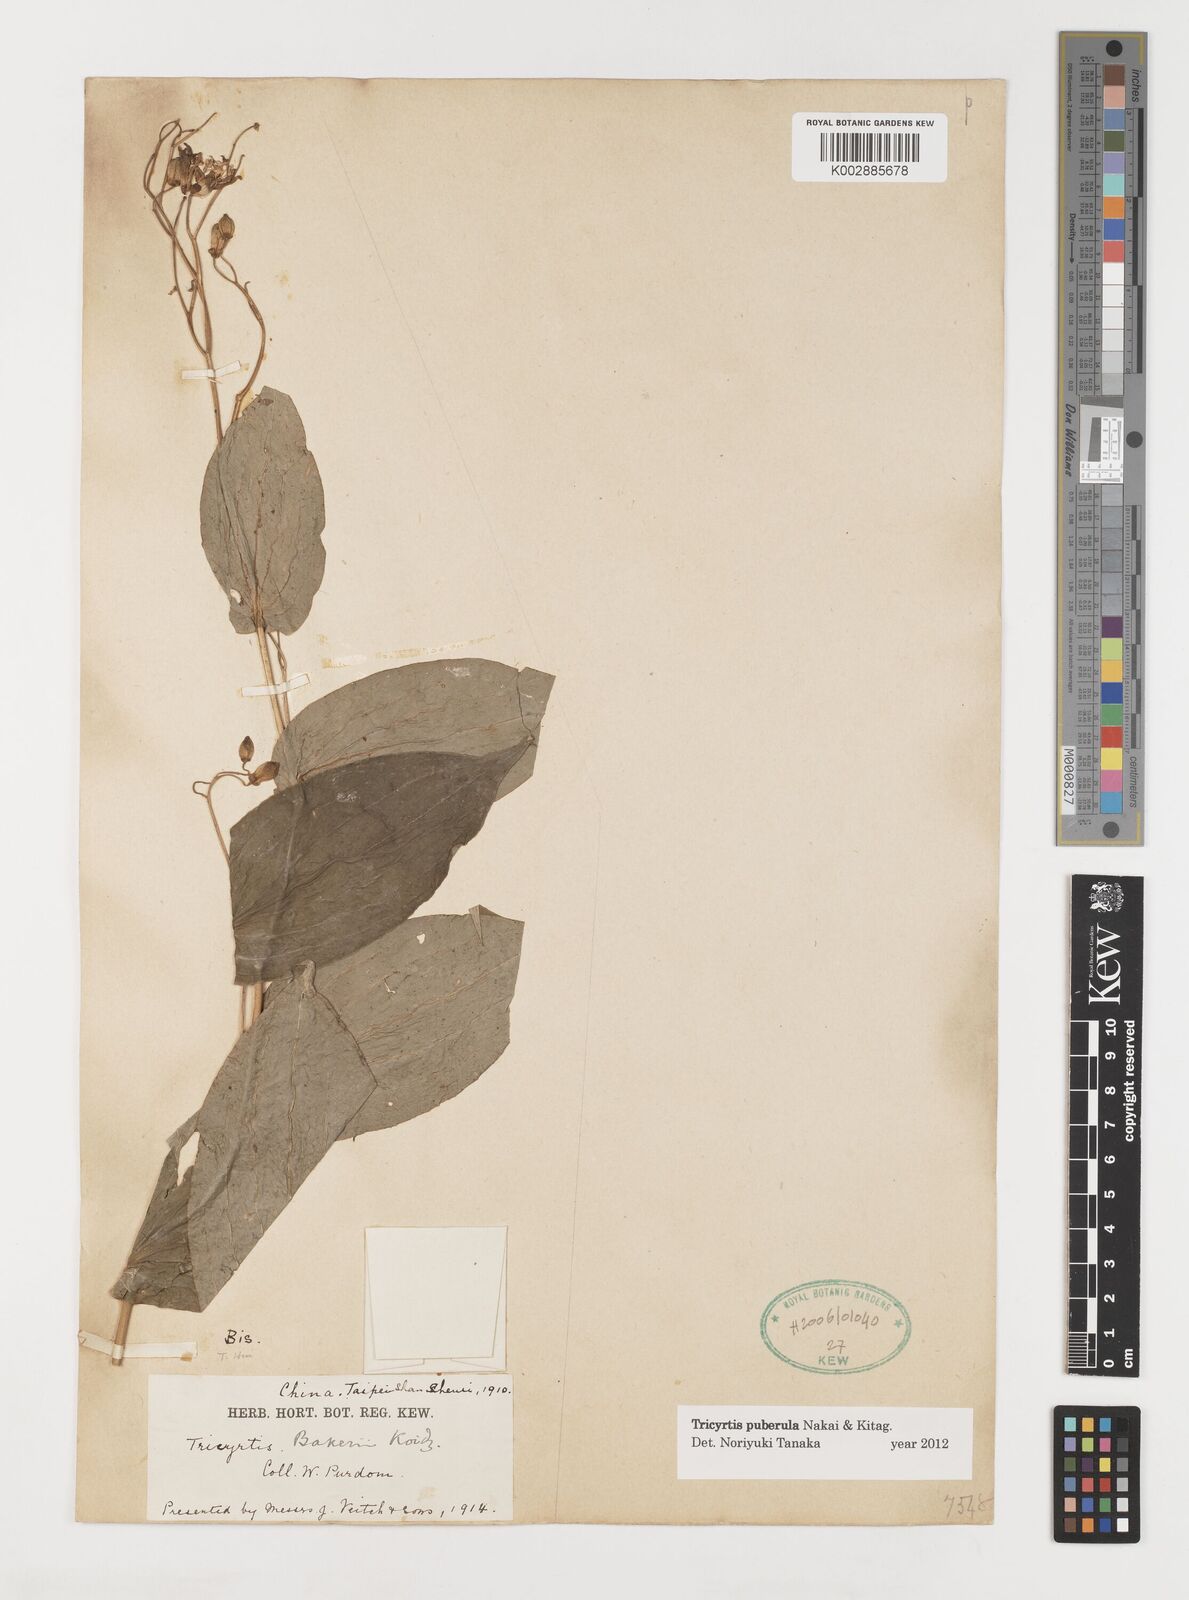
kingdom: Plantae
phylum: Tracheophyta
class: Liliopsida
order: Liliales
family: Liliaceae
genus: Tricyrtis
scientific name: Tricyrtis puberula
